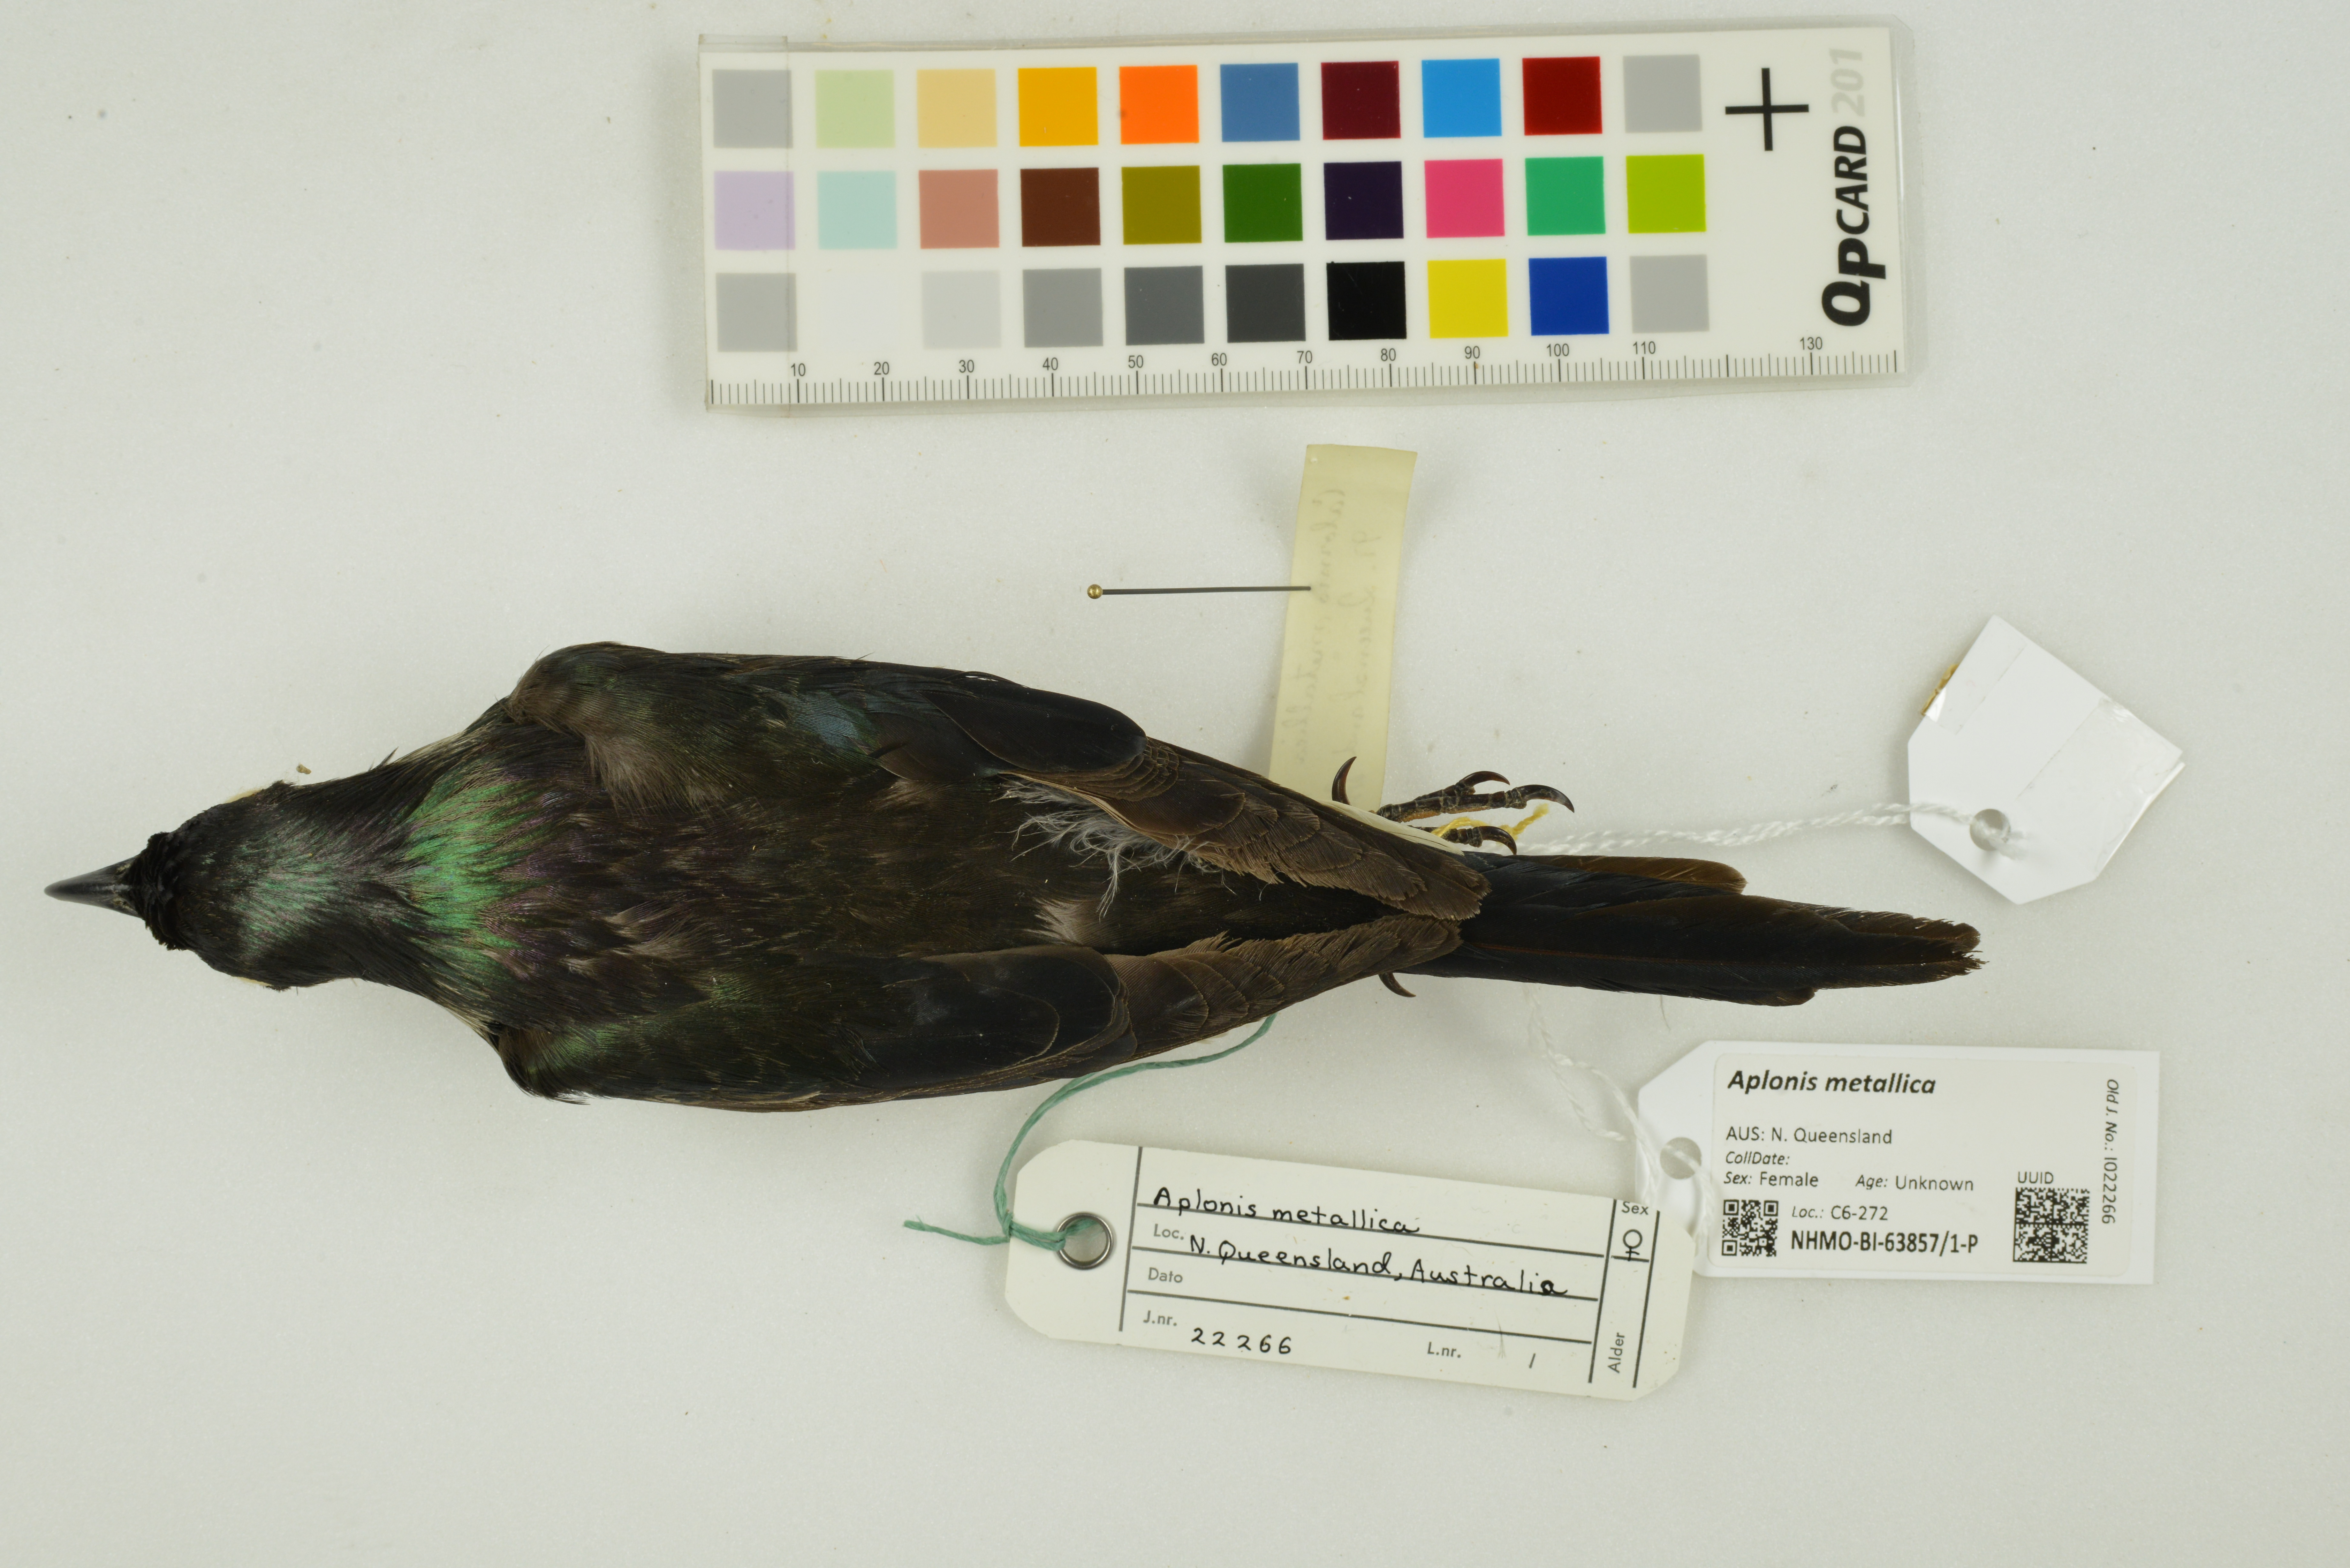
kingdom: Animalia
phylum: Chordata
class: Aves
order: Passeriformes
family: Sturnidae
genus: Aplonis
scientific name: Aplonis metallica
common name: Metallic starling
